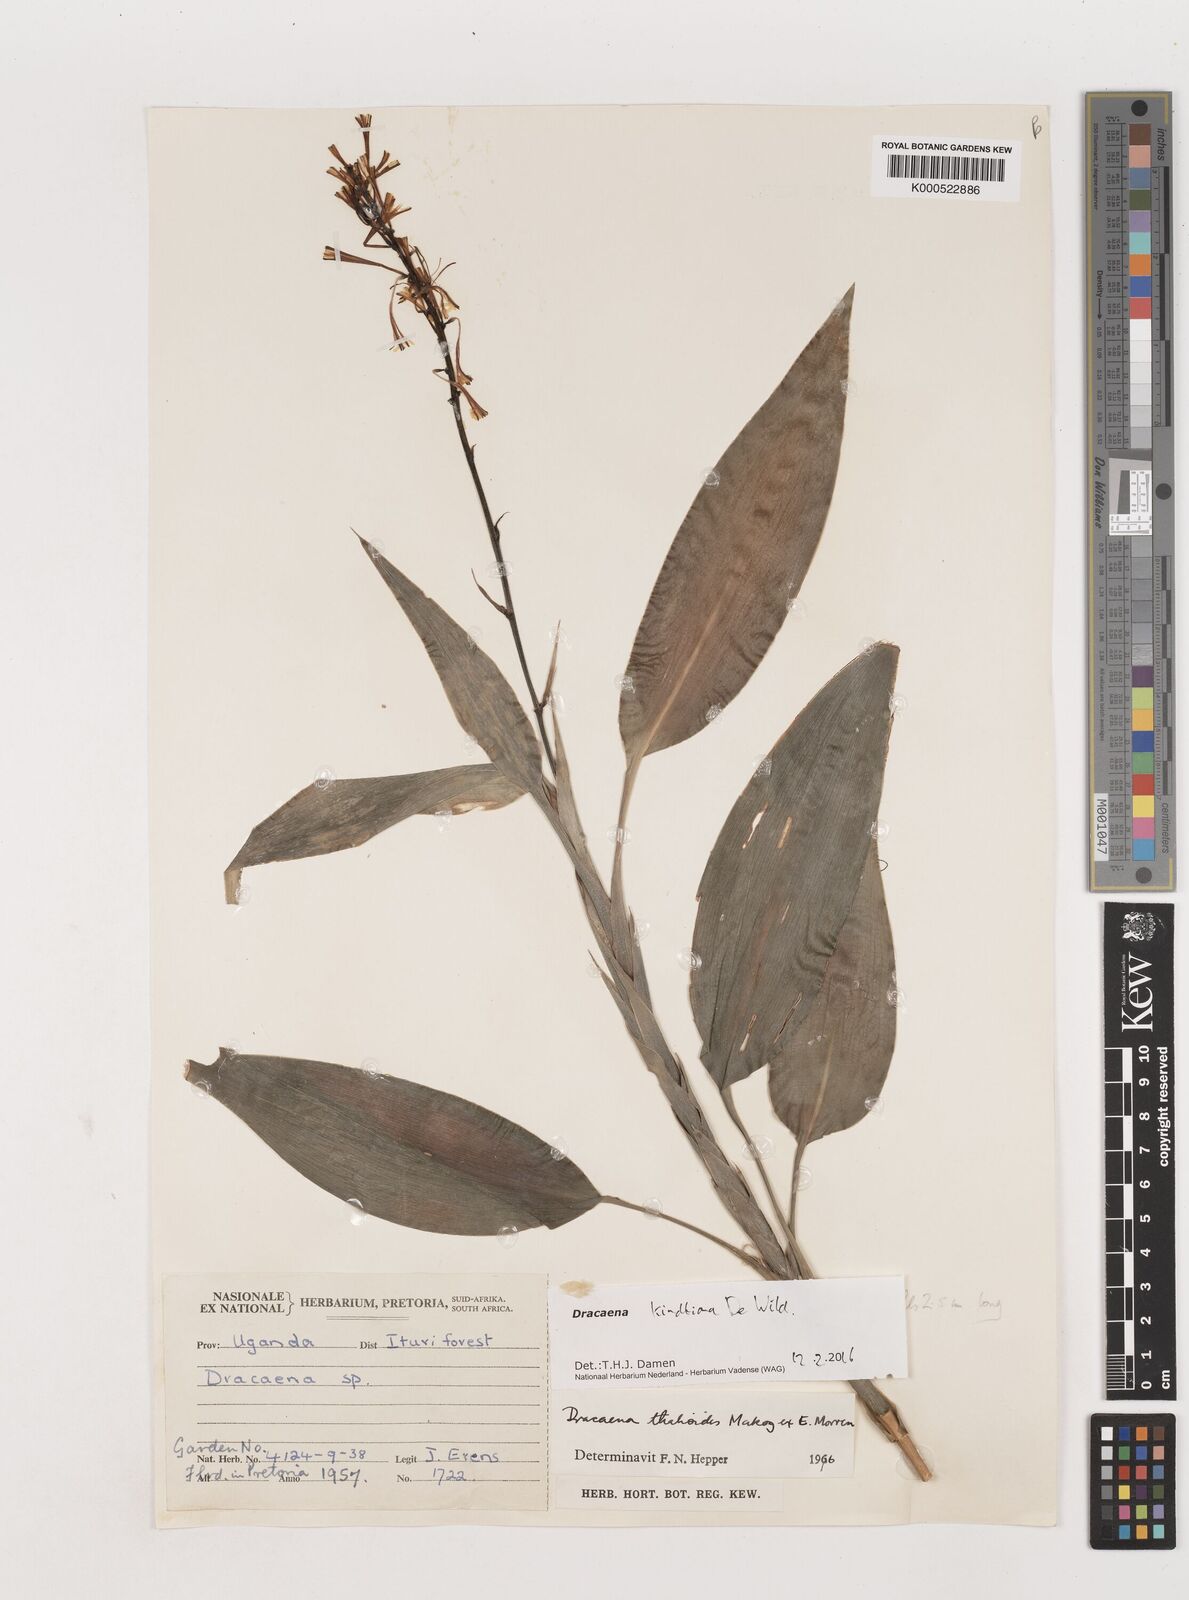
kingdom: Plantae
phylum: Tracheophyta
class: Liliopsida
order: Asparagales
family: Asparagaceae
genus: Dracaena
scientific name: Dracaena kindtiana
